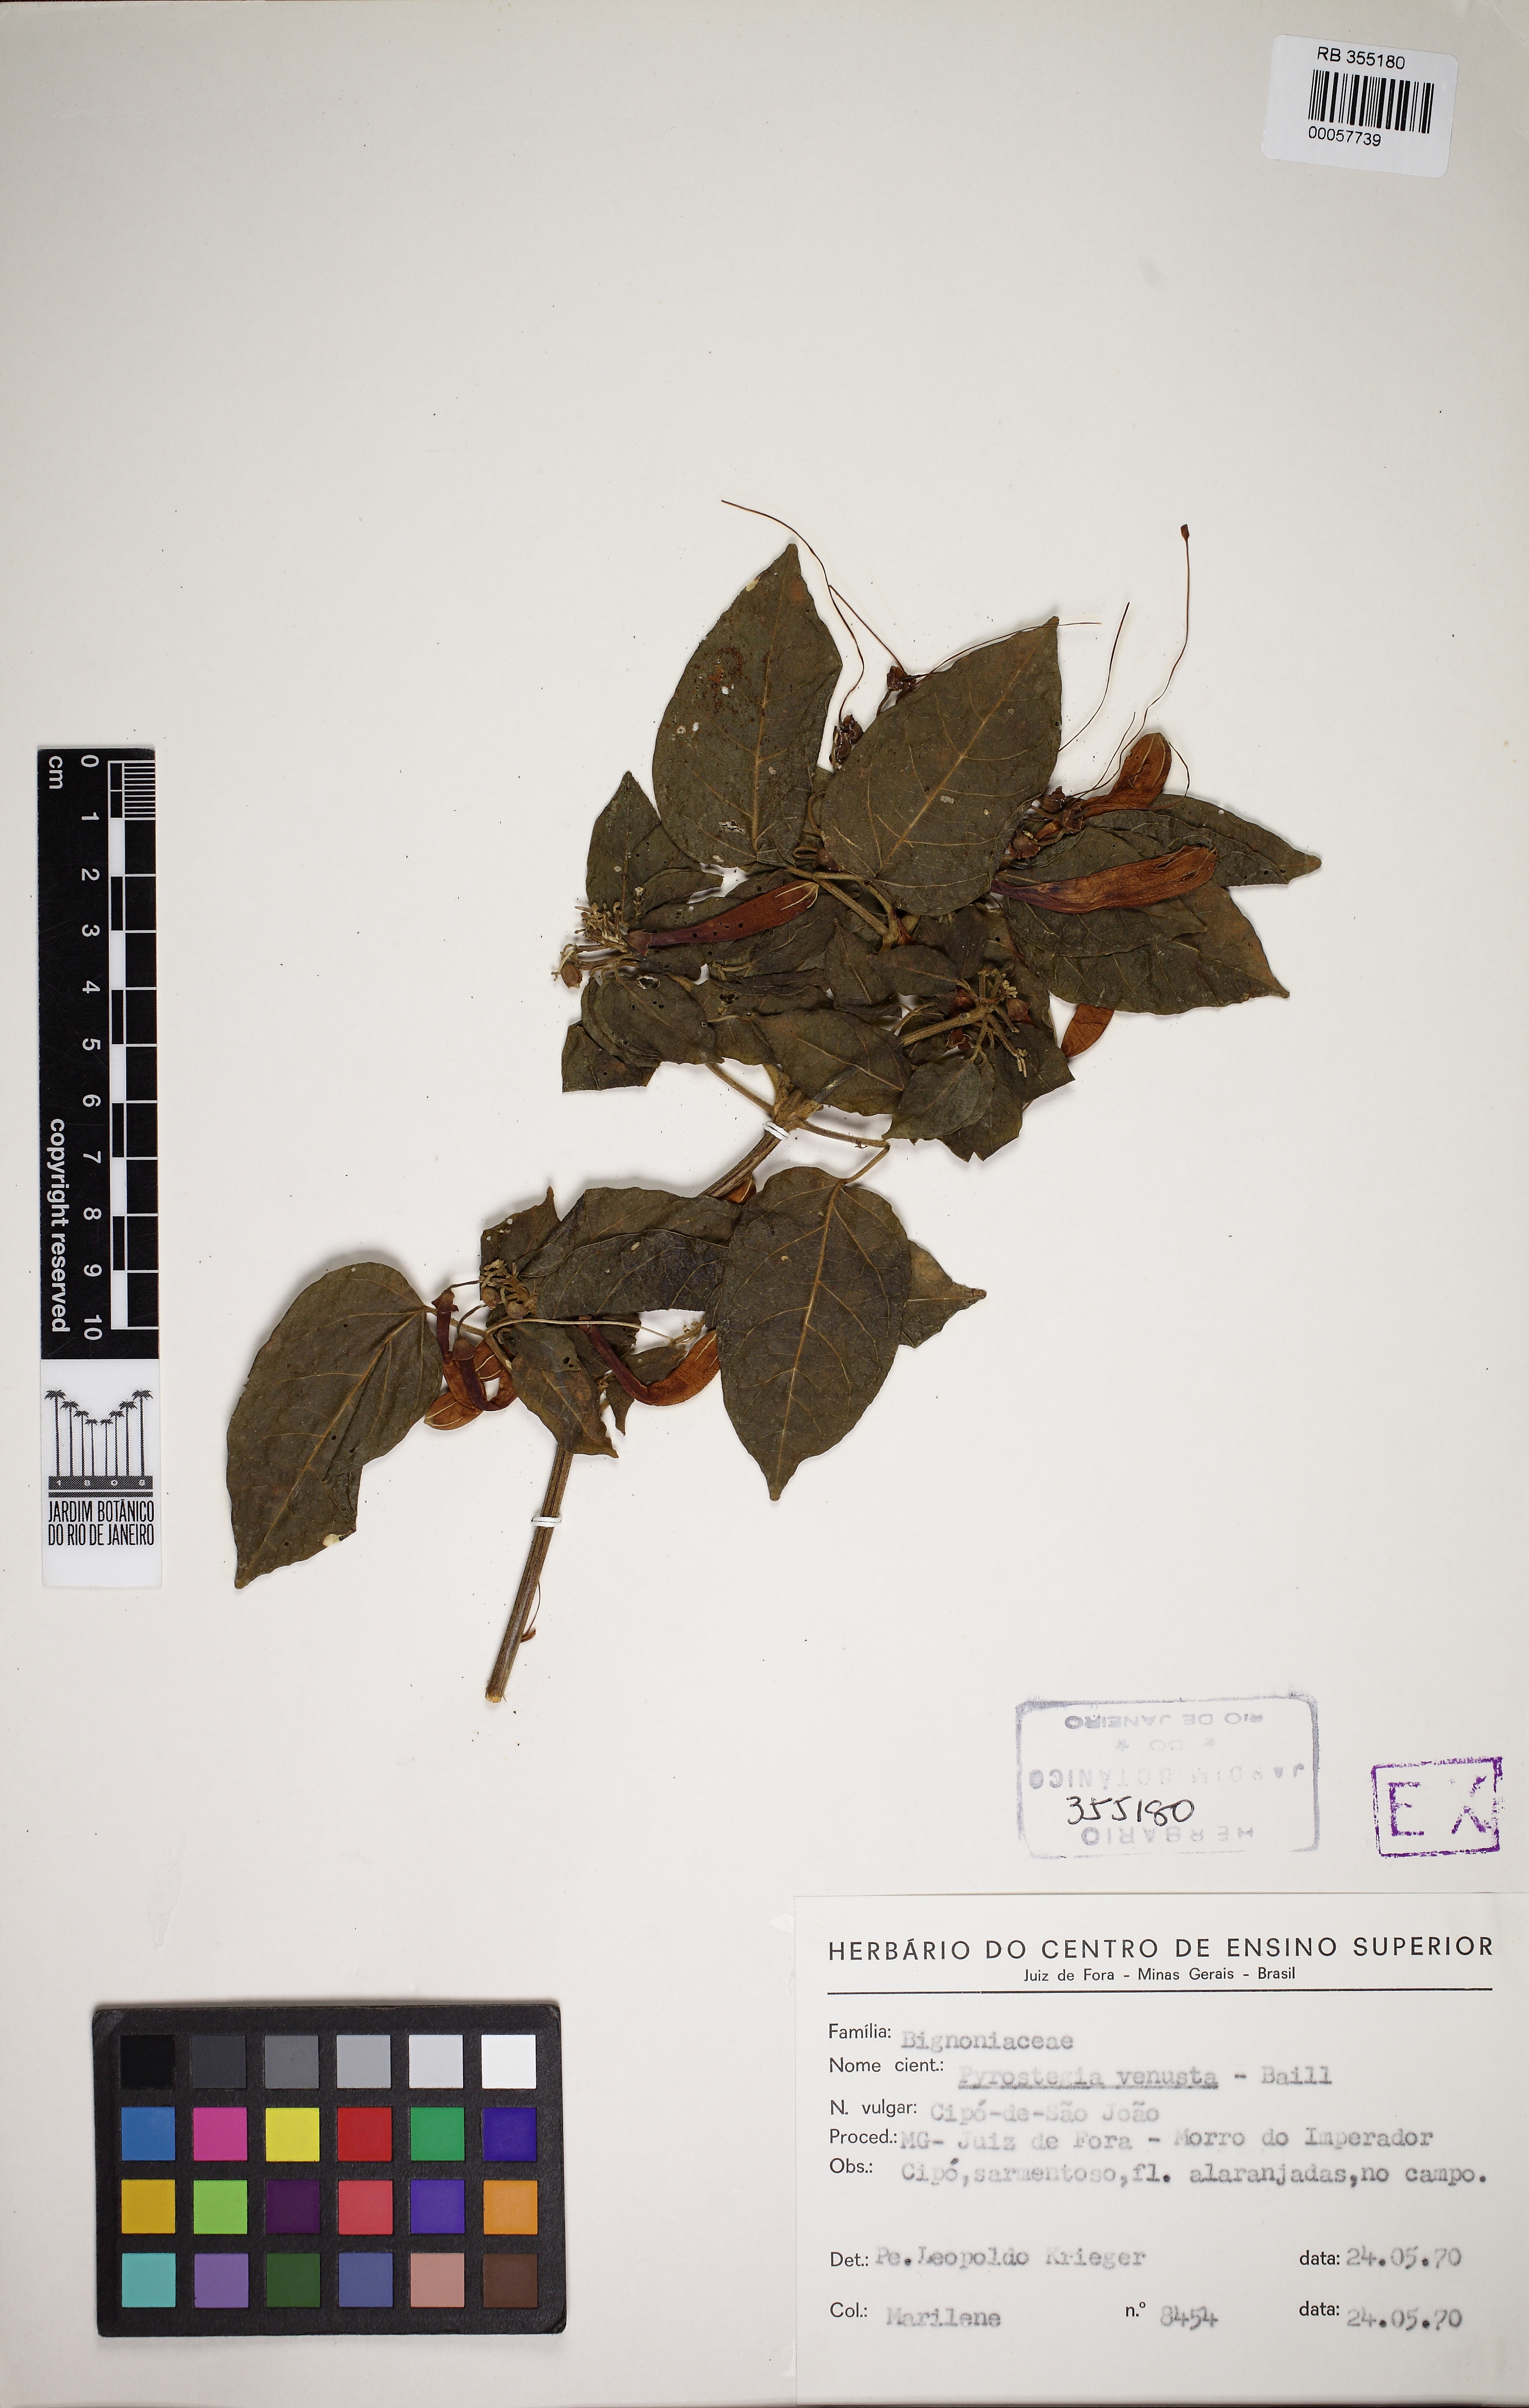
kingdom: Plantae
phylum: Tracheophyta
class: Magnoliopsida
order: Lamiales
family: Bignoniaceae
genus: Pyrostegia
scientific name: Pyrostegia
